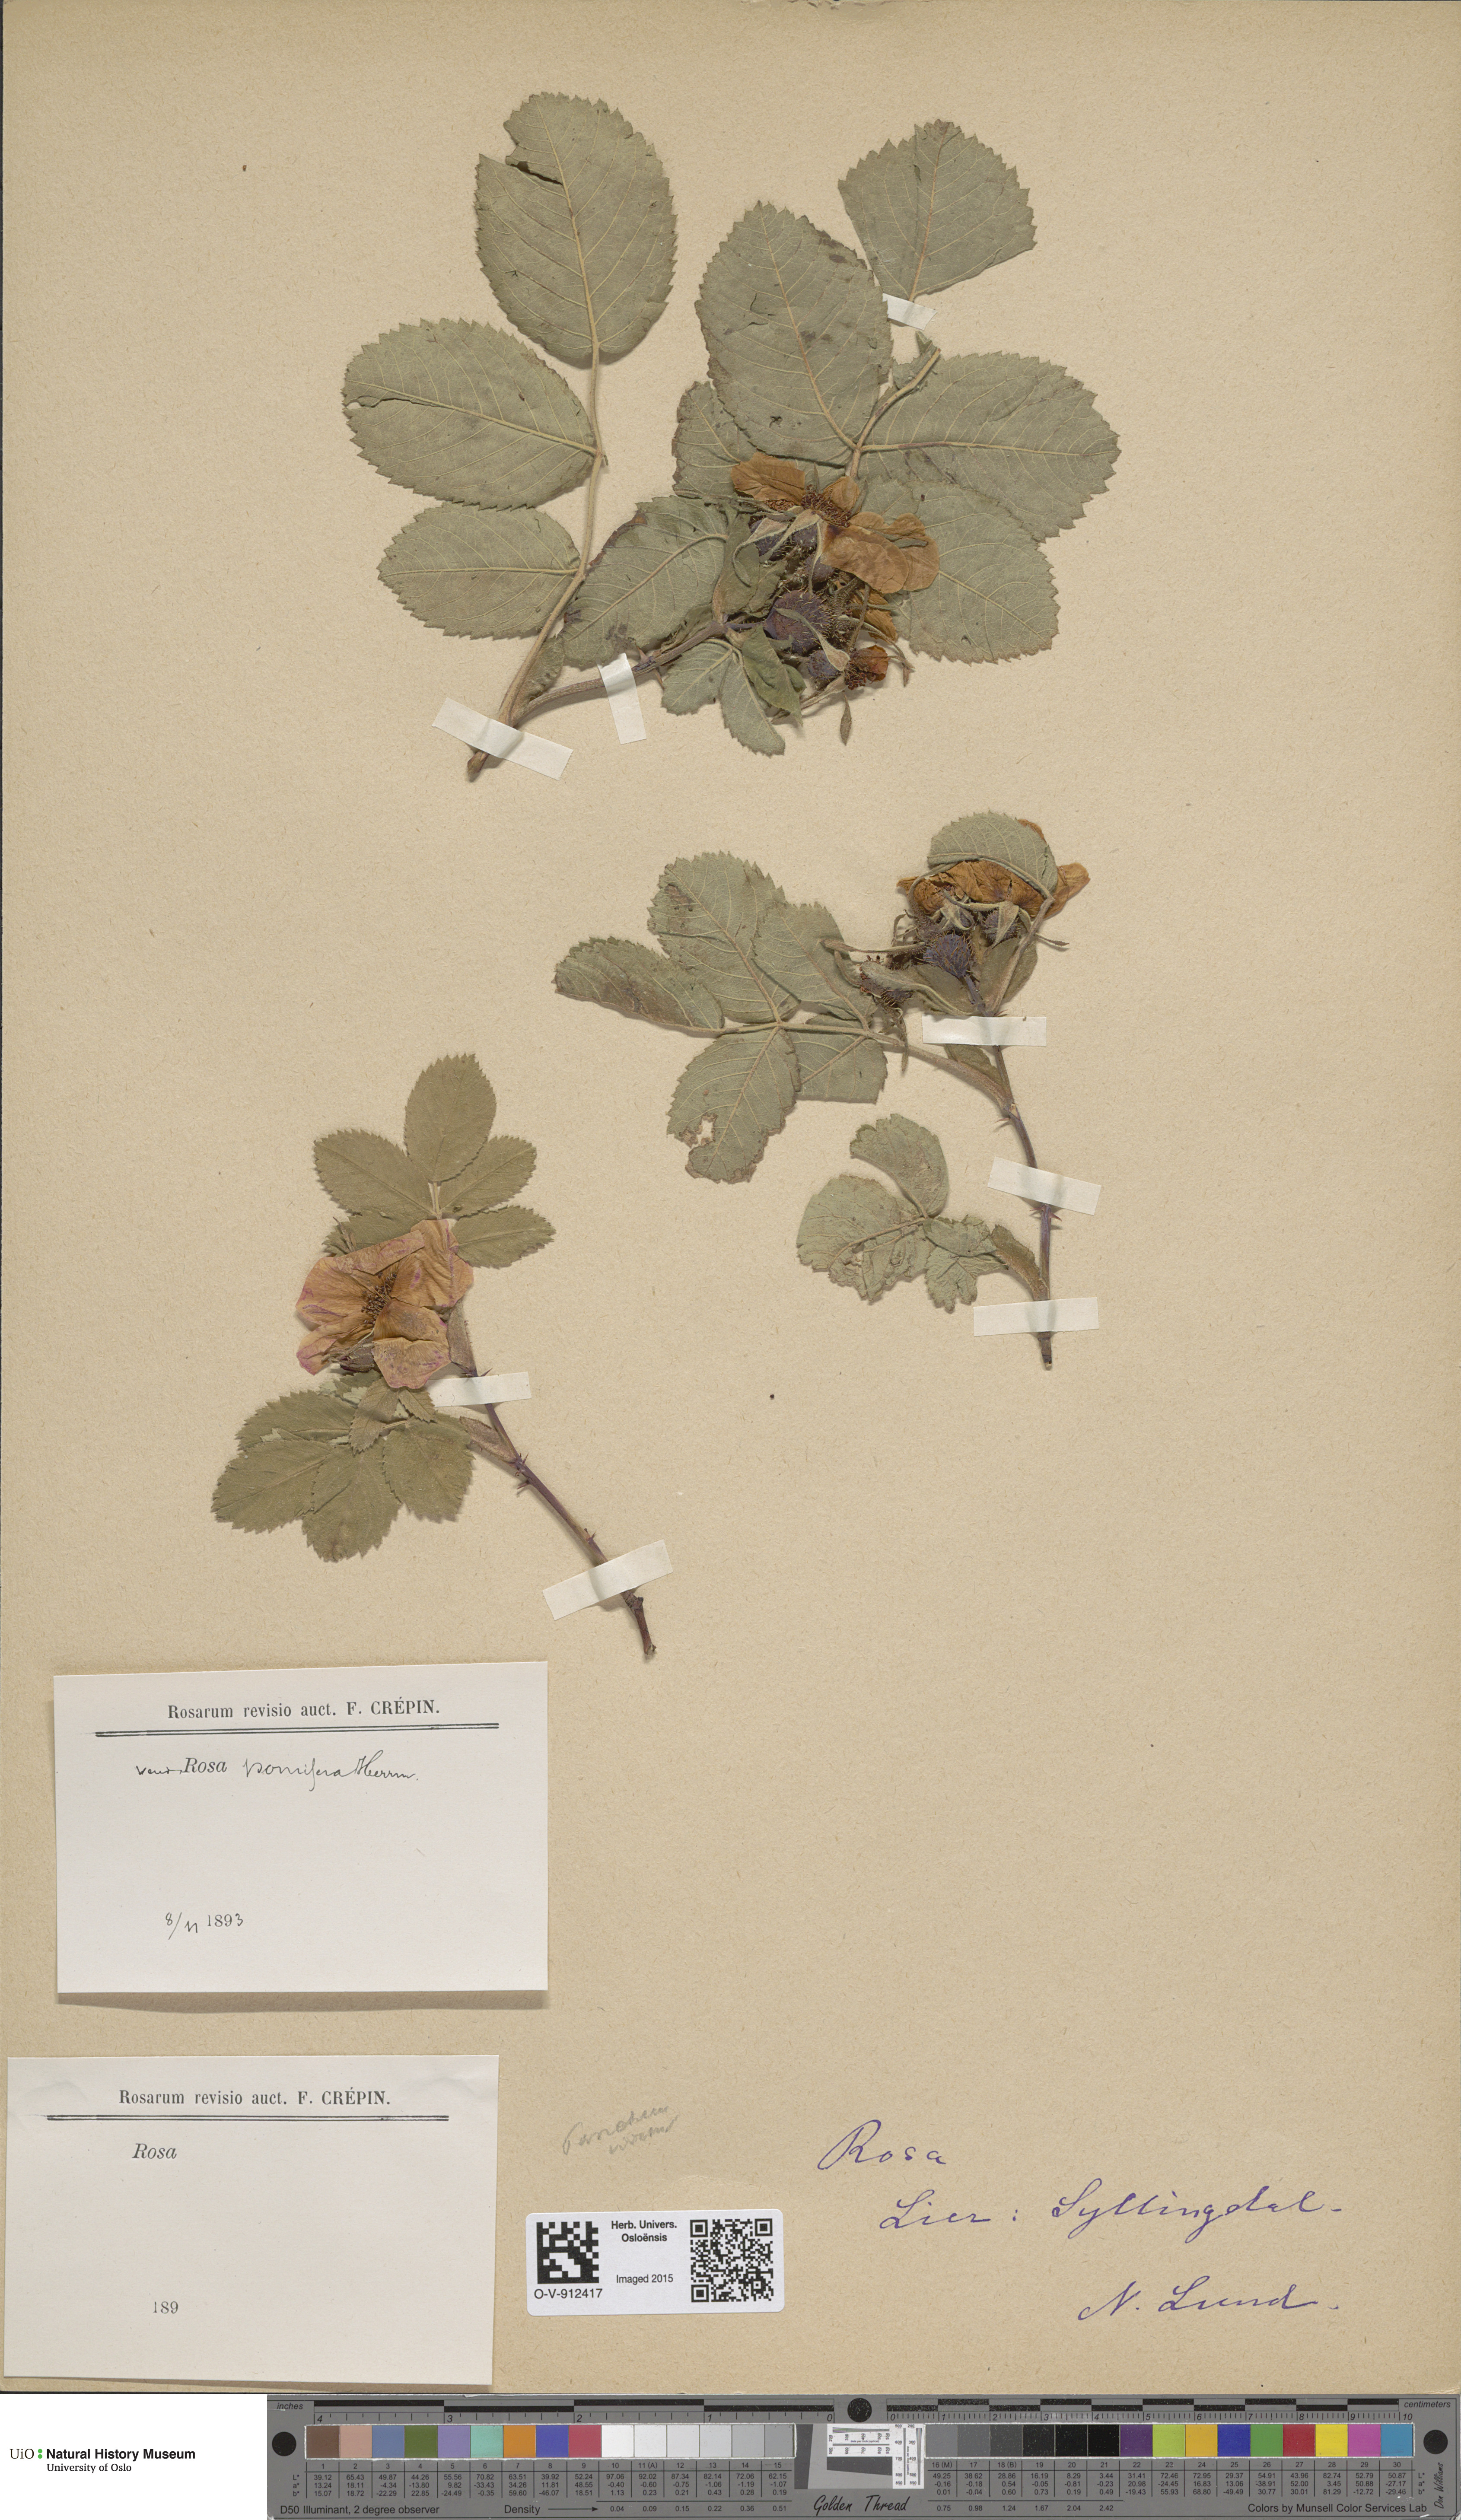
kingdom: Plantae
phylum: Tracheophyta
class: Magnoliopsida
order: Rosales
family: Rosaceae
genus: Rosa
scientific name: Rosa villosa
